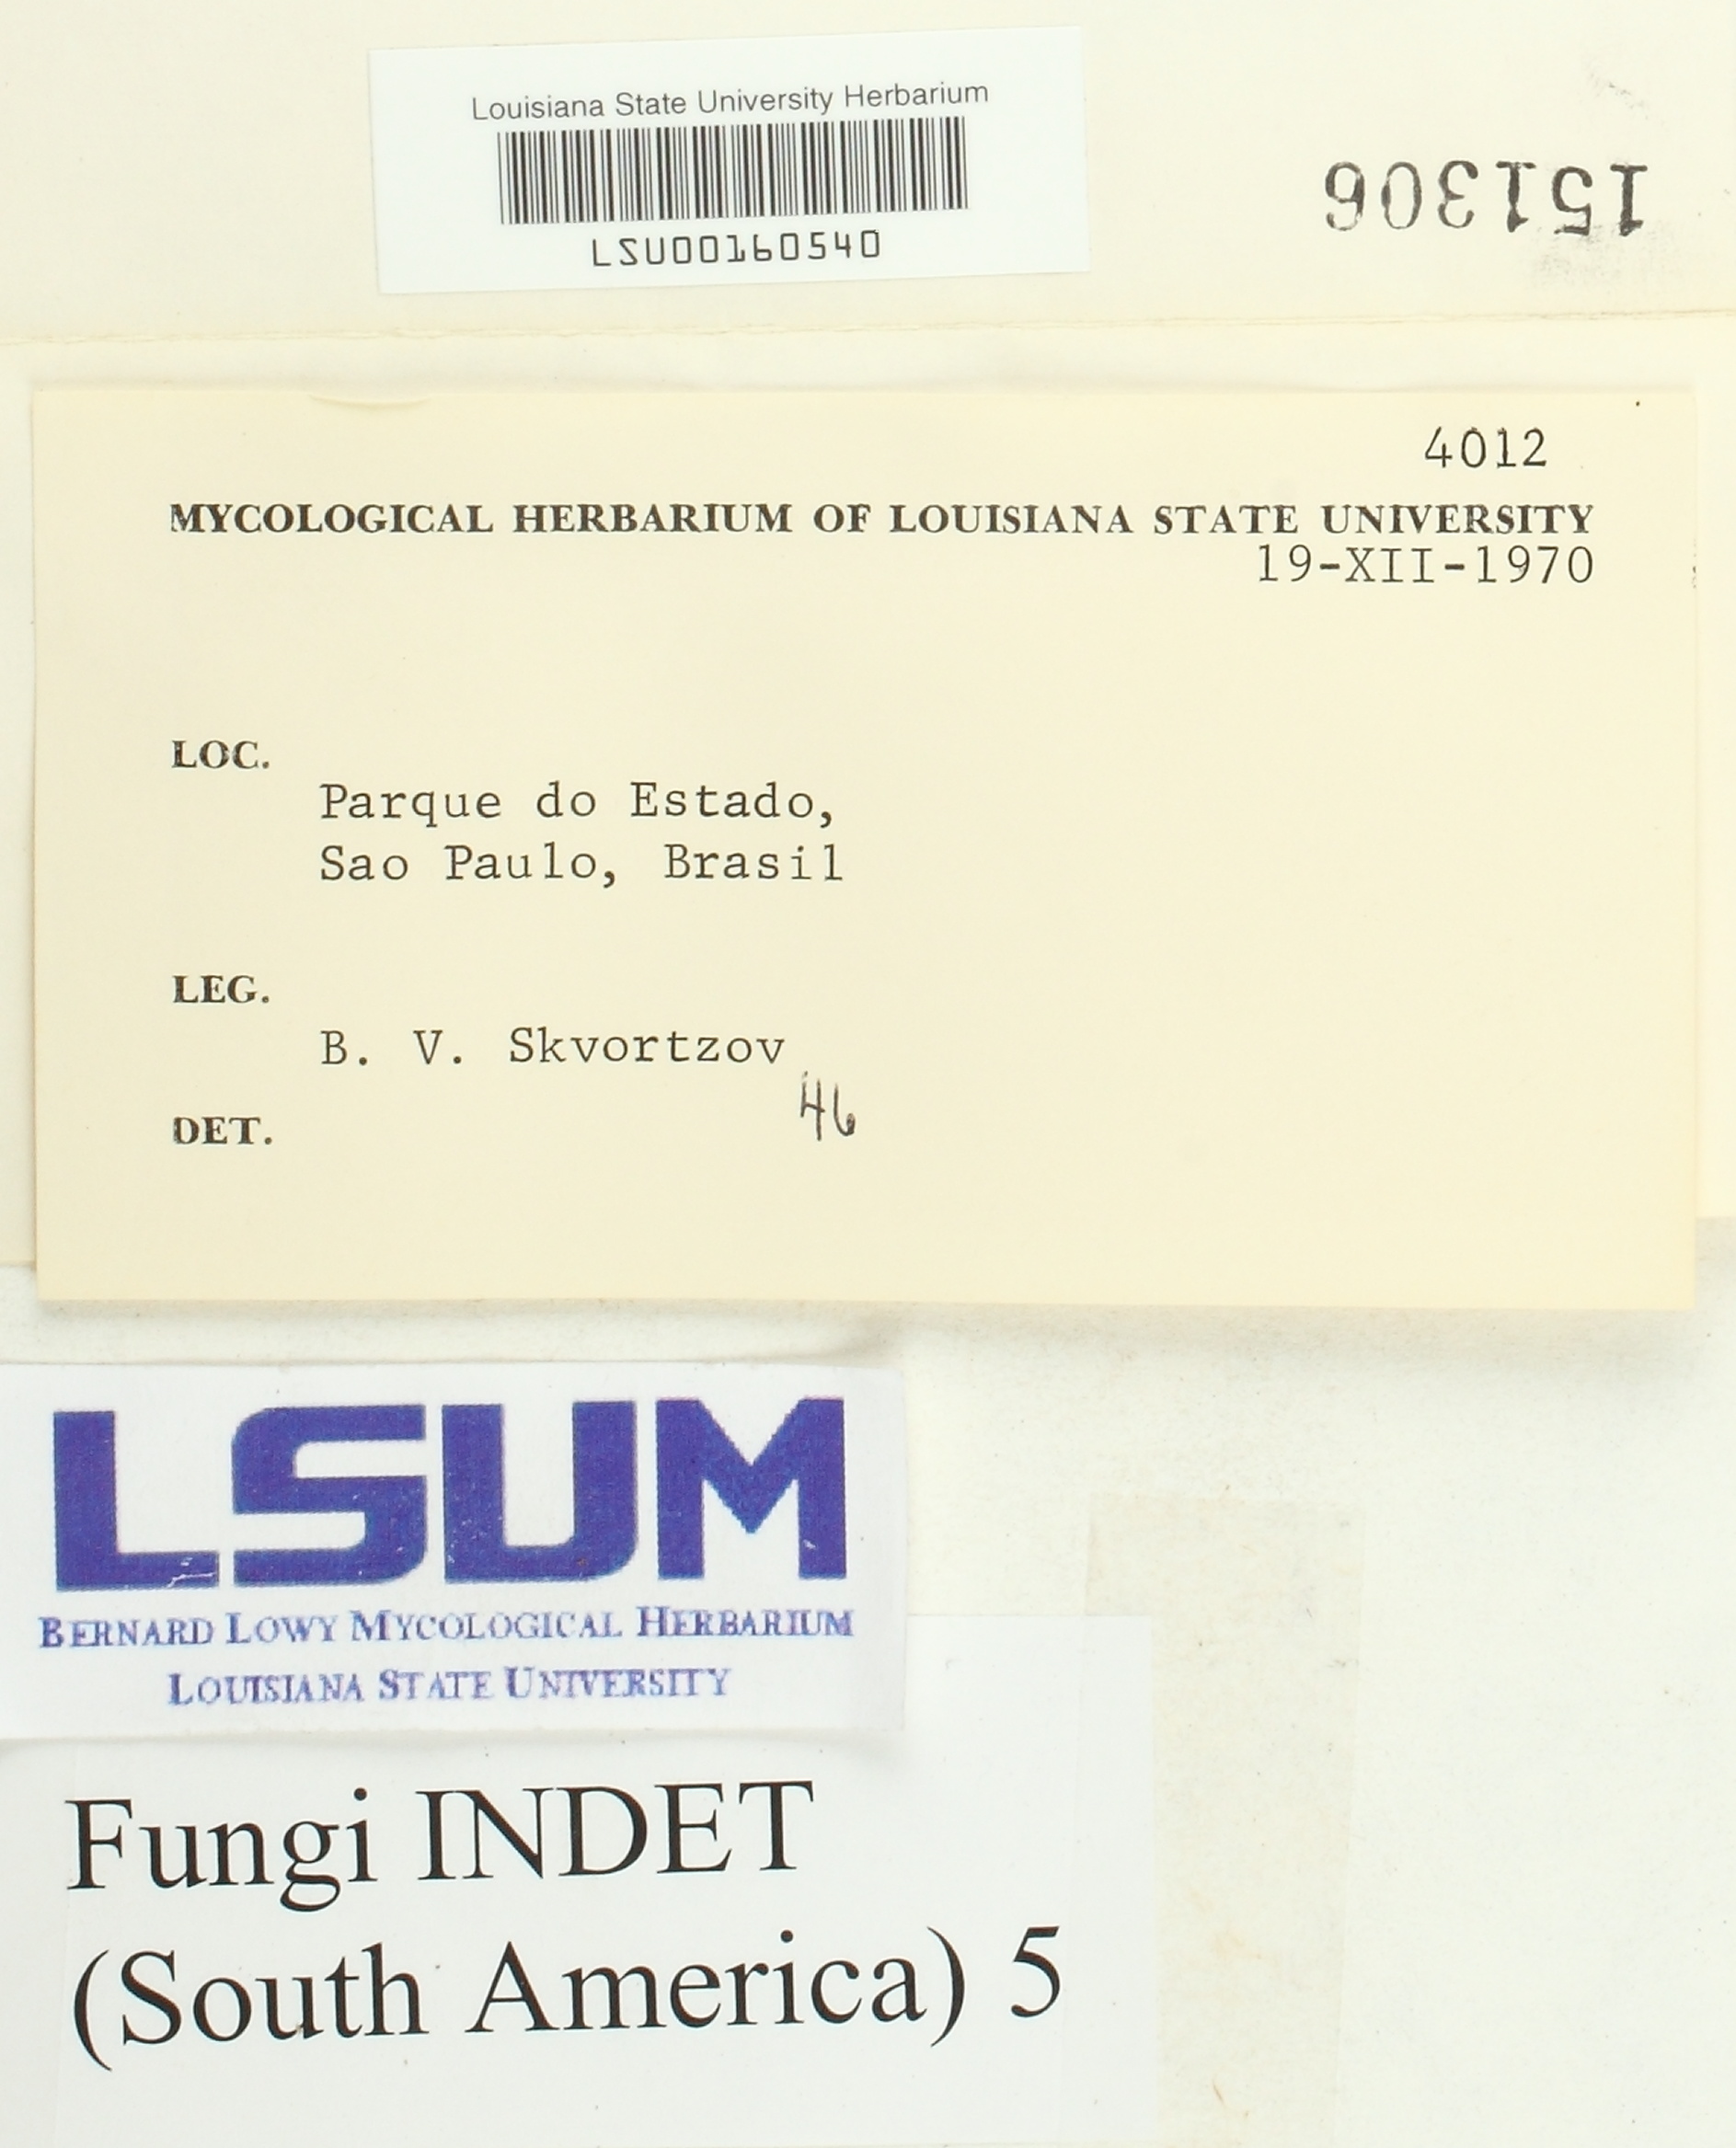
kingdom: Fungi
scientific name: Fungi
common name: Fungi
